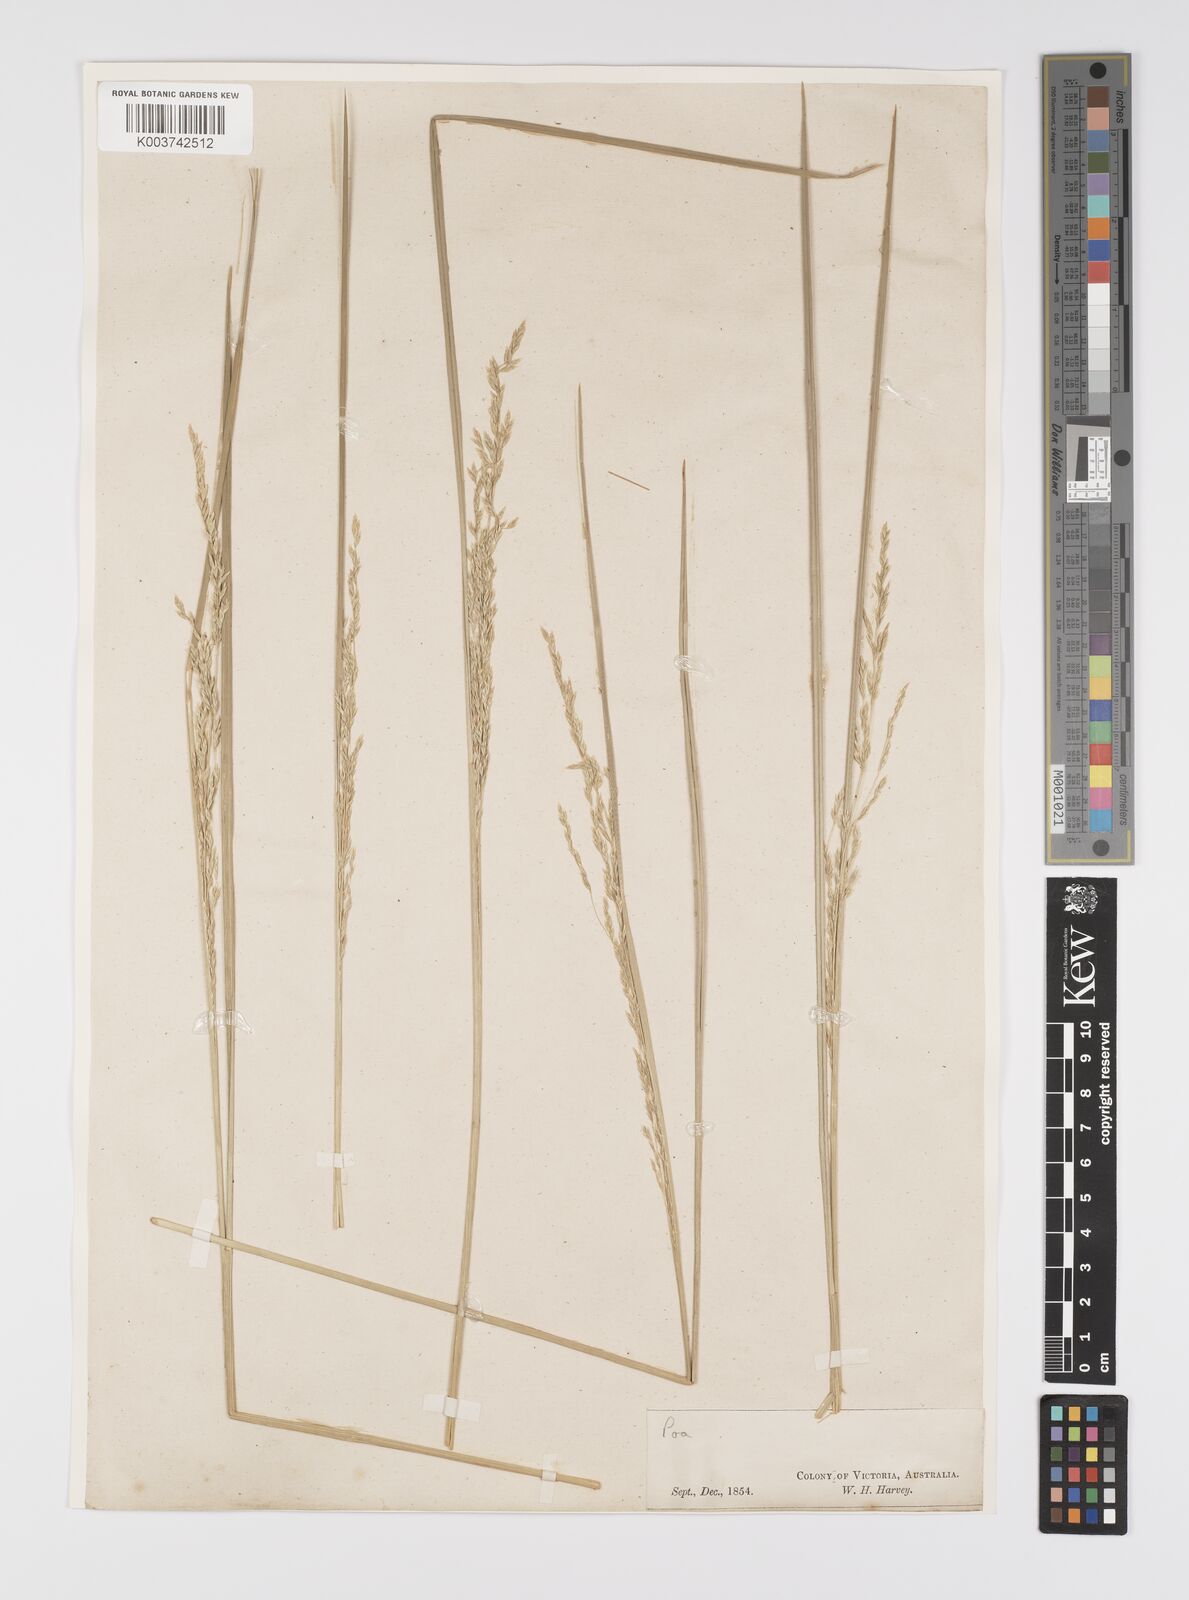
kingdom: Plantae
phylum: Tracheophyta
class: Liliopsida
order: Poales
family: Poaceae
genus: Poa
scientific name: Poa
